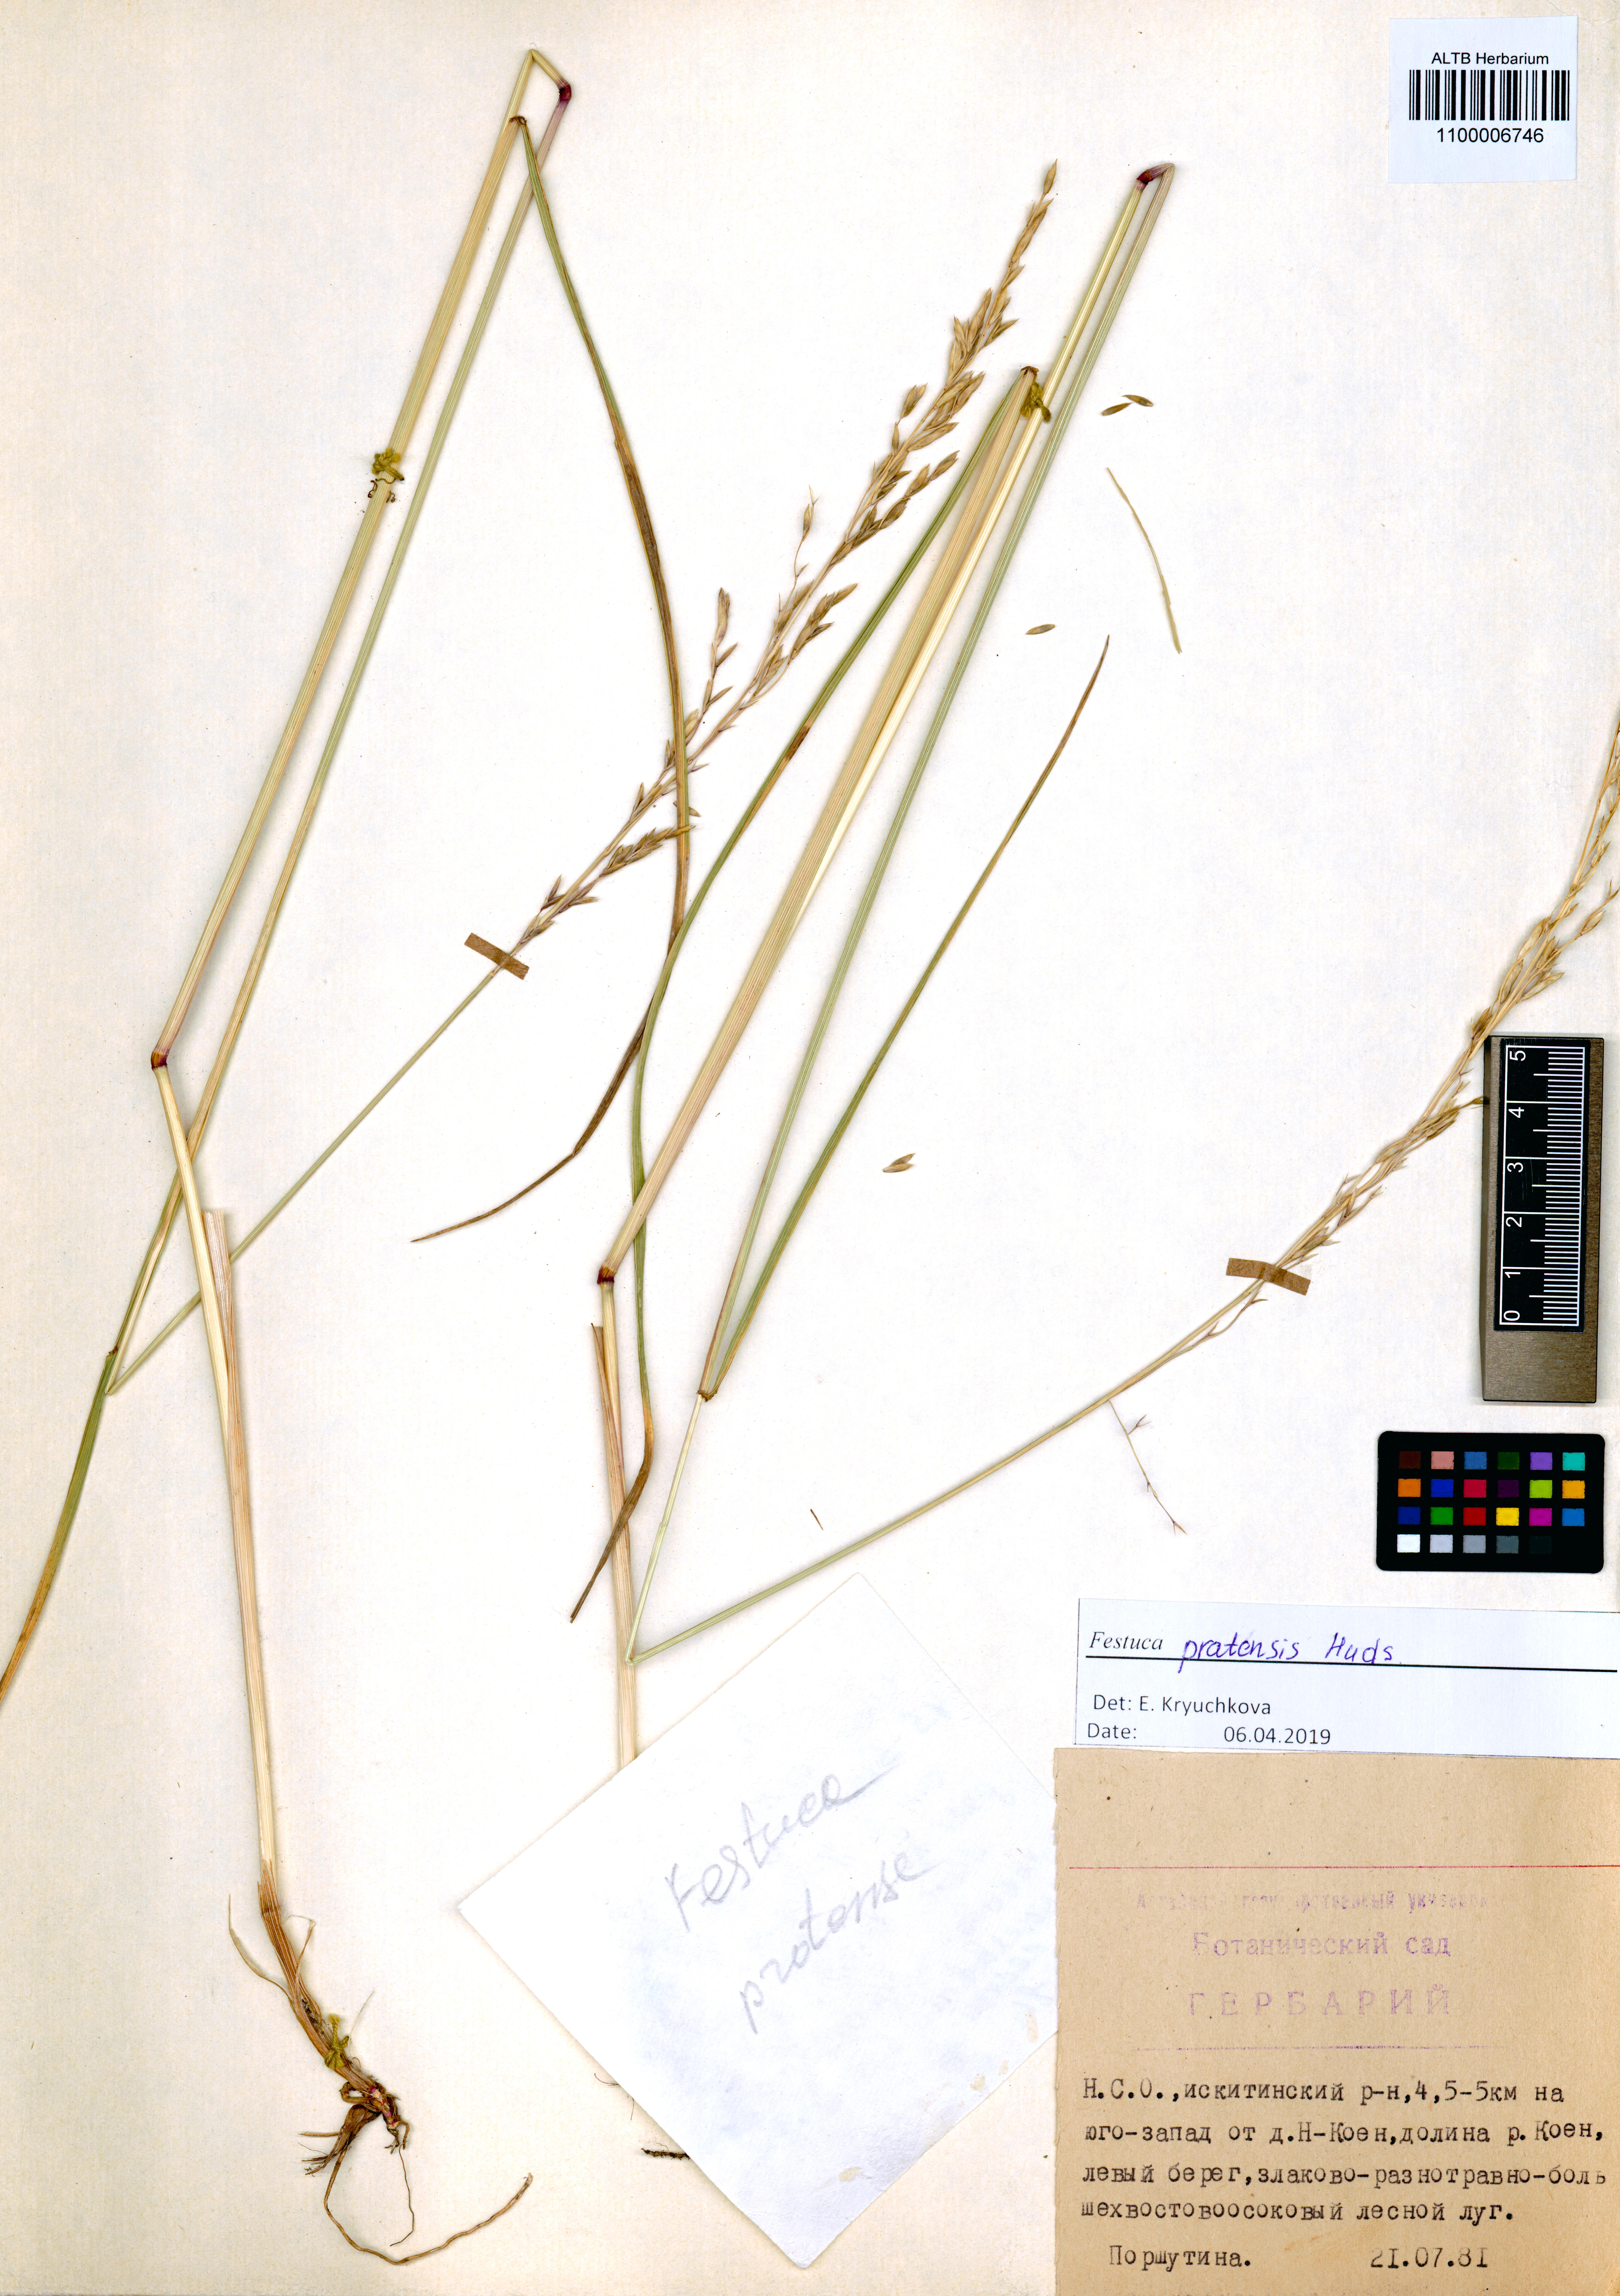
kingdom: Plantae
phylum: Tracheophyta
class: Liliopsida
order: Poales
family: Poaceae
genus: Lolium
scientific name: Lolium pratense
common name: Dover grass
